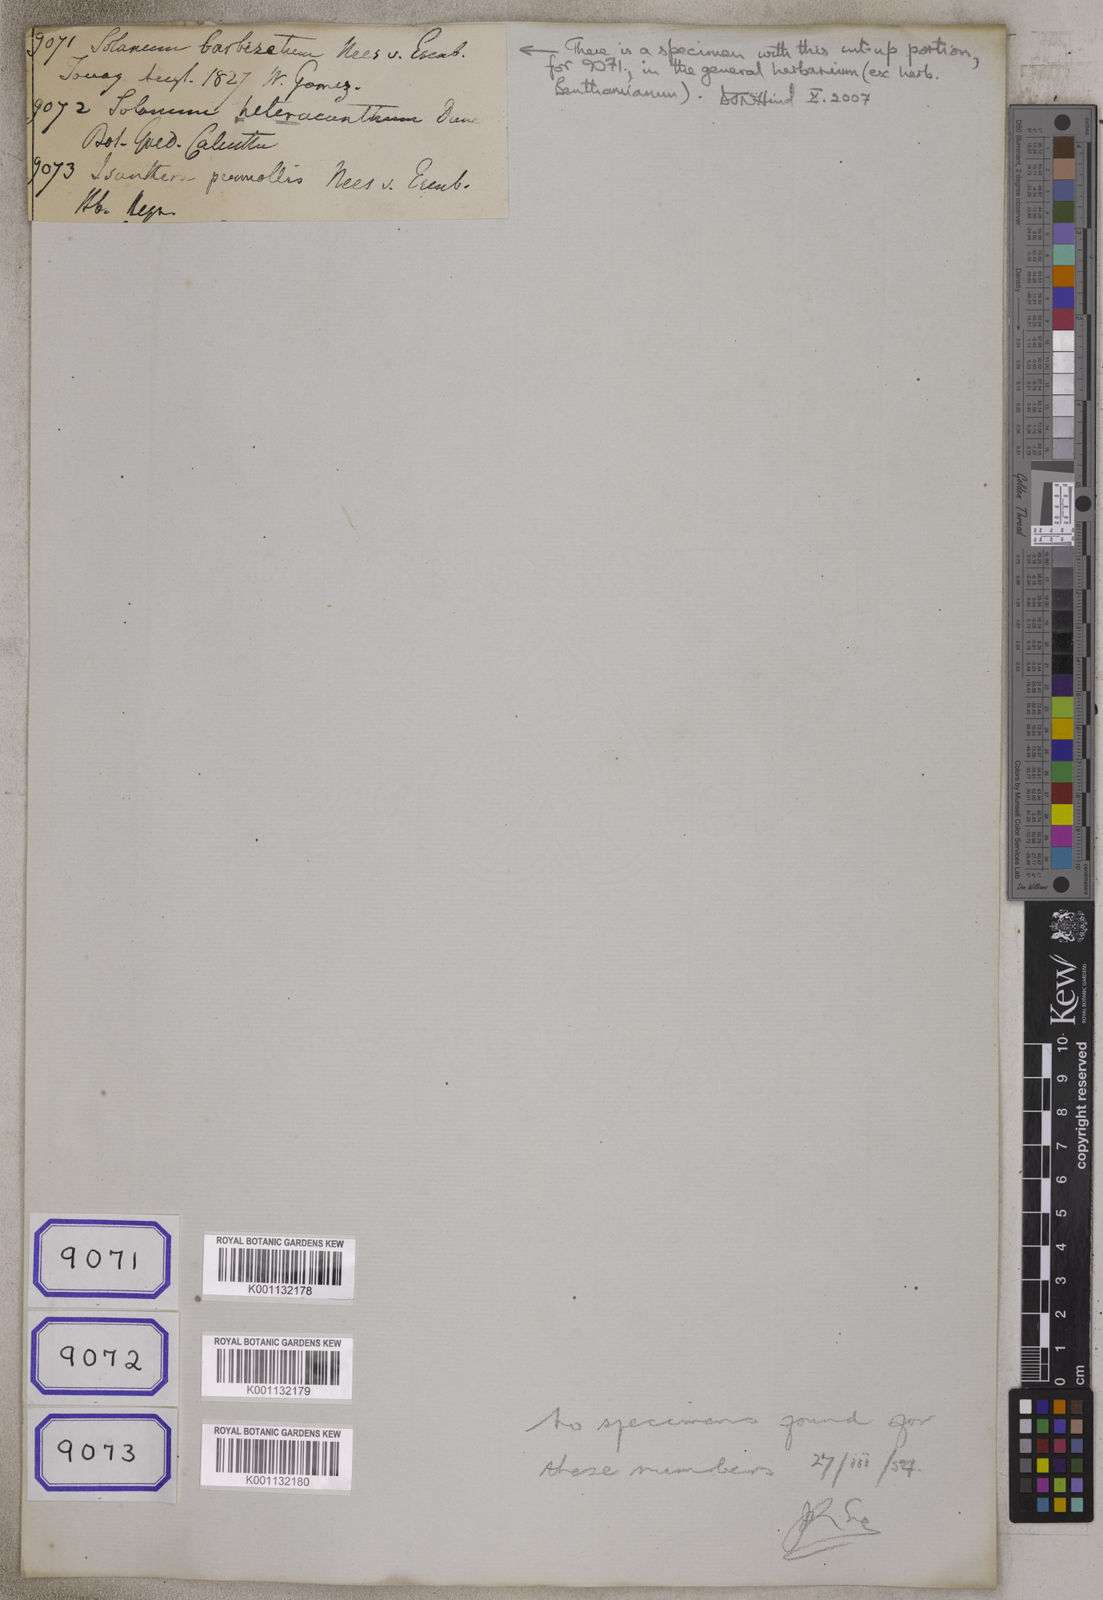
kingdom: Plantae
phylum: Tracheophyta
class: Magnoliopsida
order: Solanales
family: Solanaceae
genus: Solanum
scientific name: Solanum barbisetum
